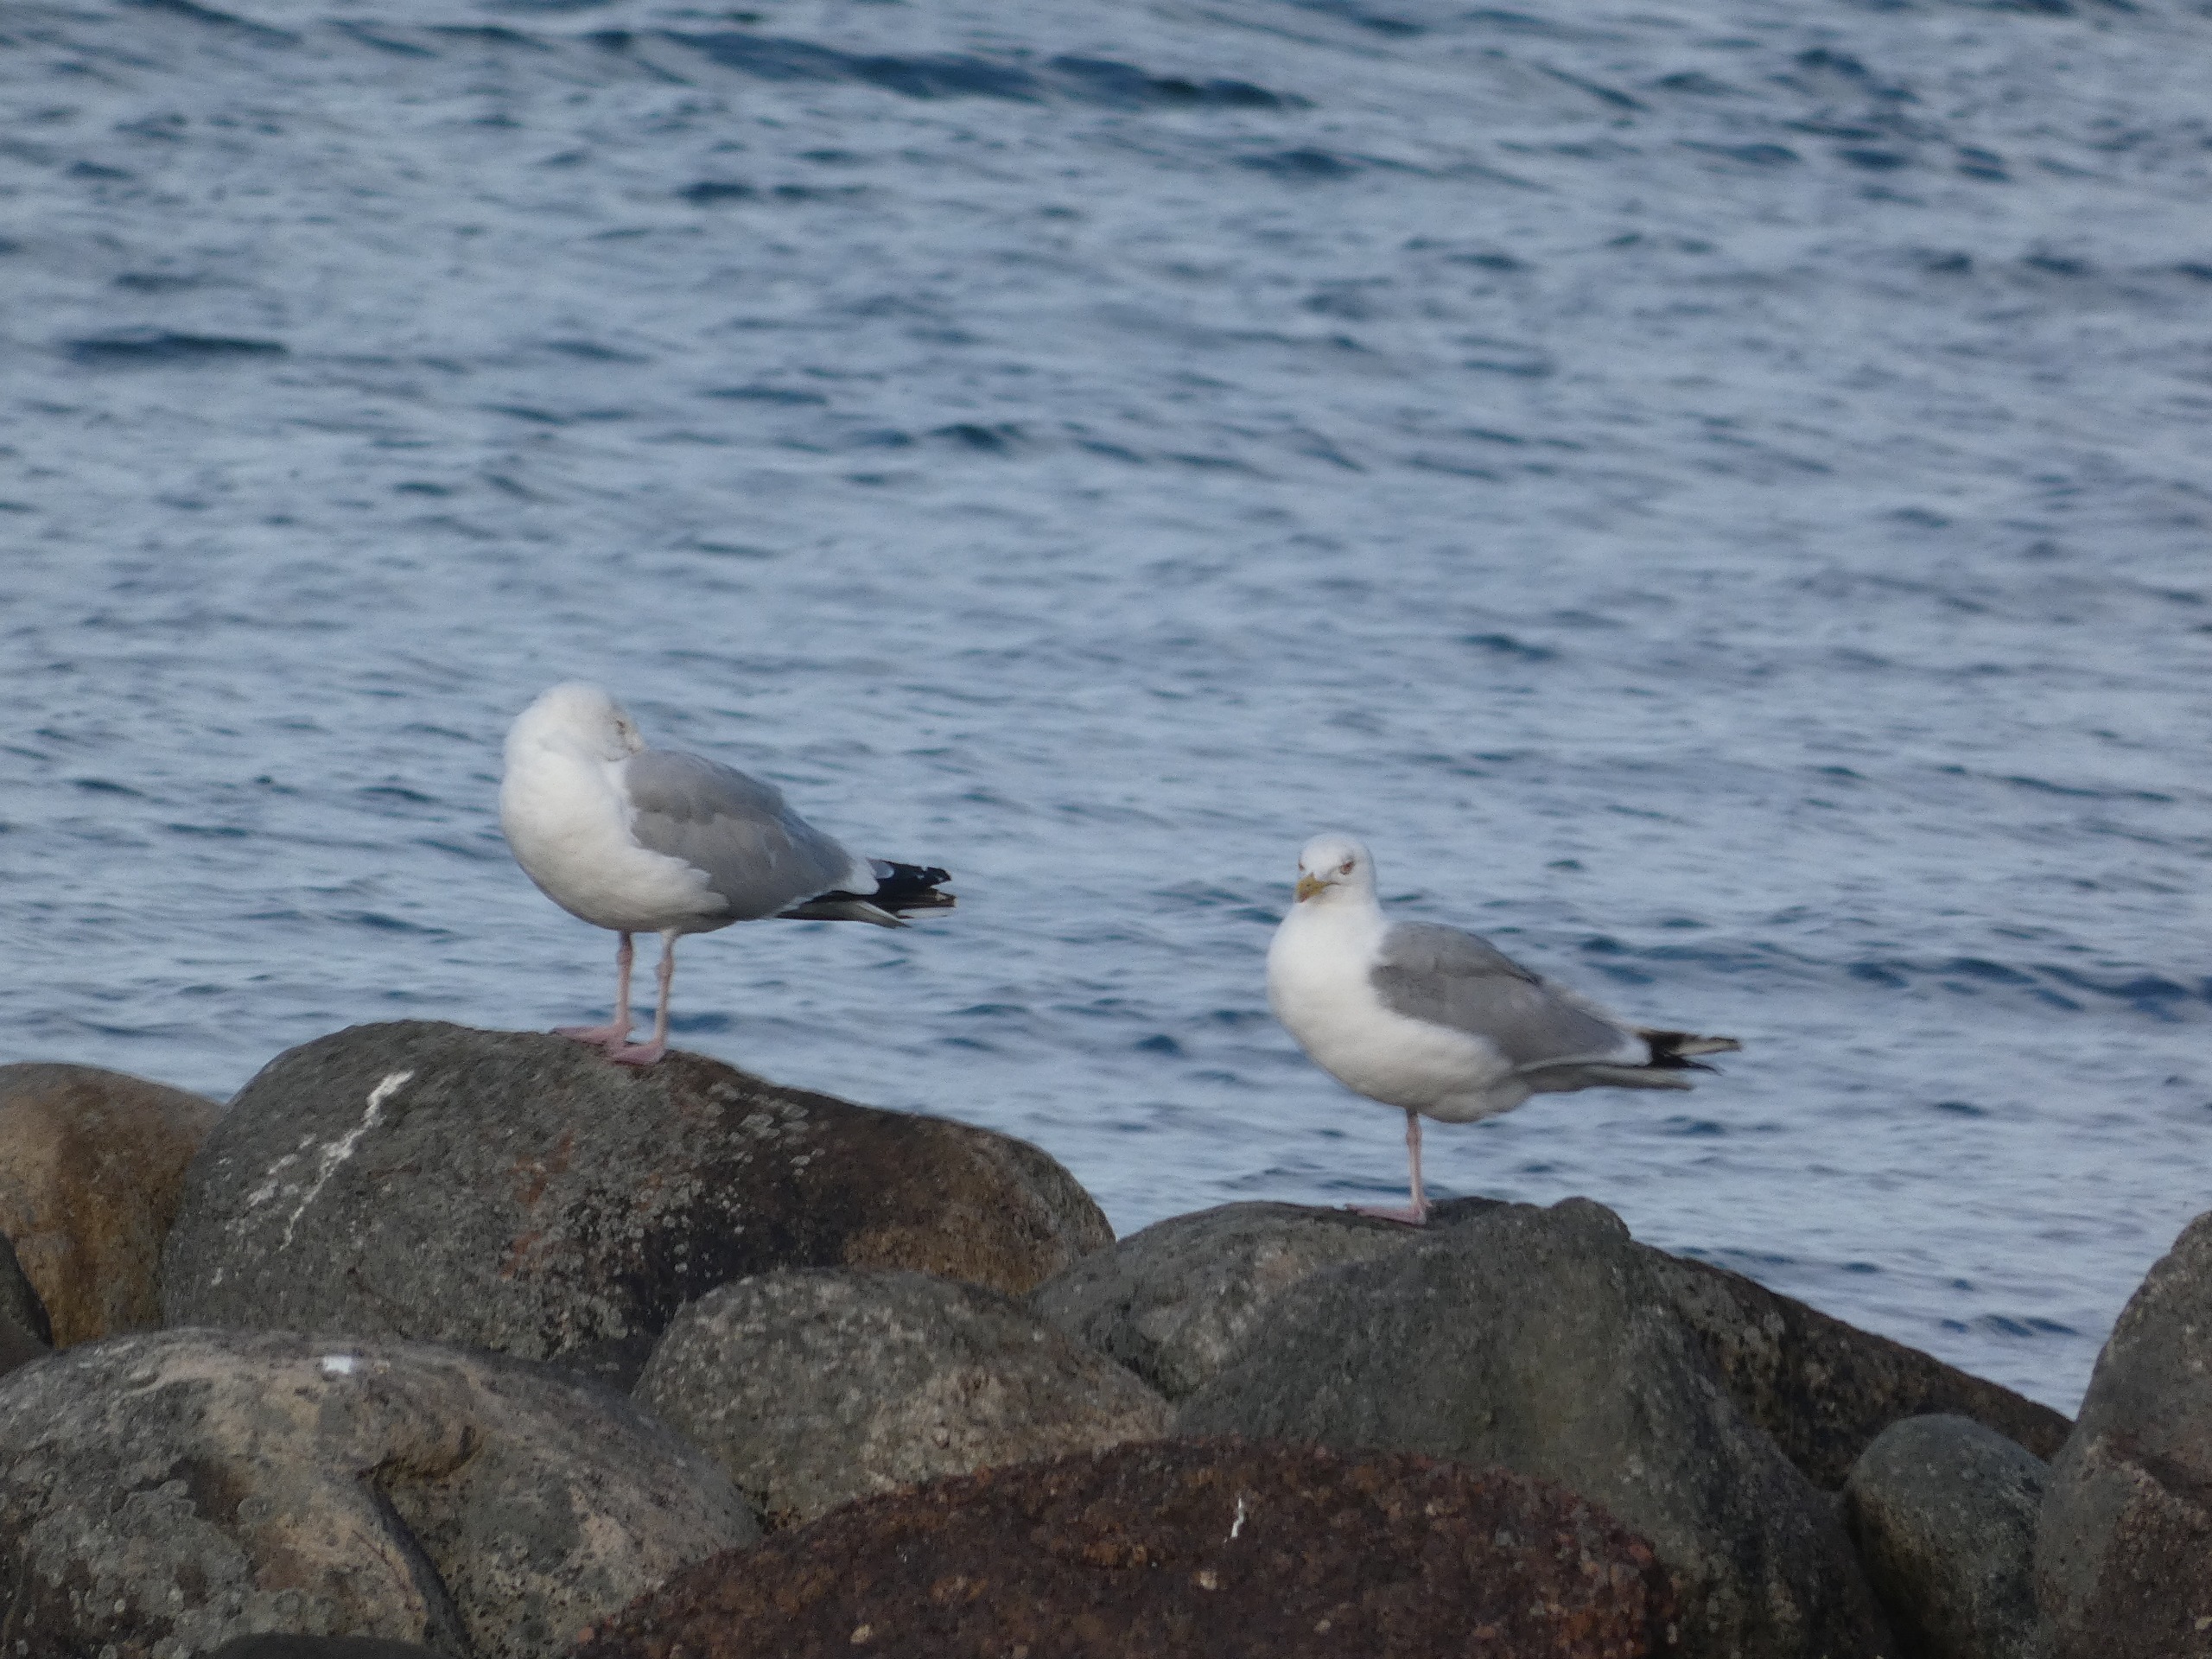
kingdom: Animalia
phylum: Chordata
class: Aves
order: Charadriiformes
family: Laridae
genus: Larus
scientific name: Larus argentatus
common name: Sølvmåge
